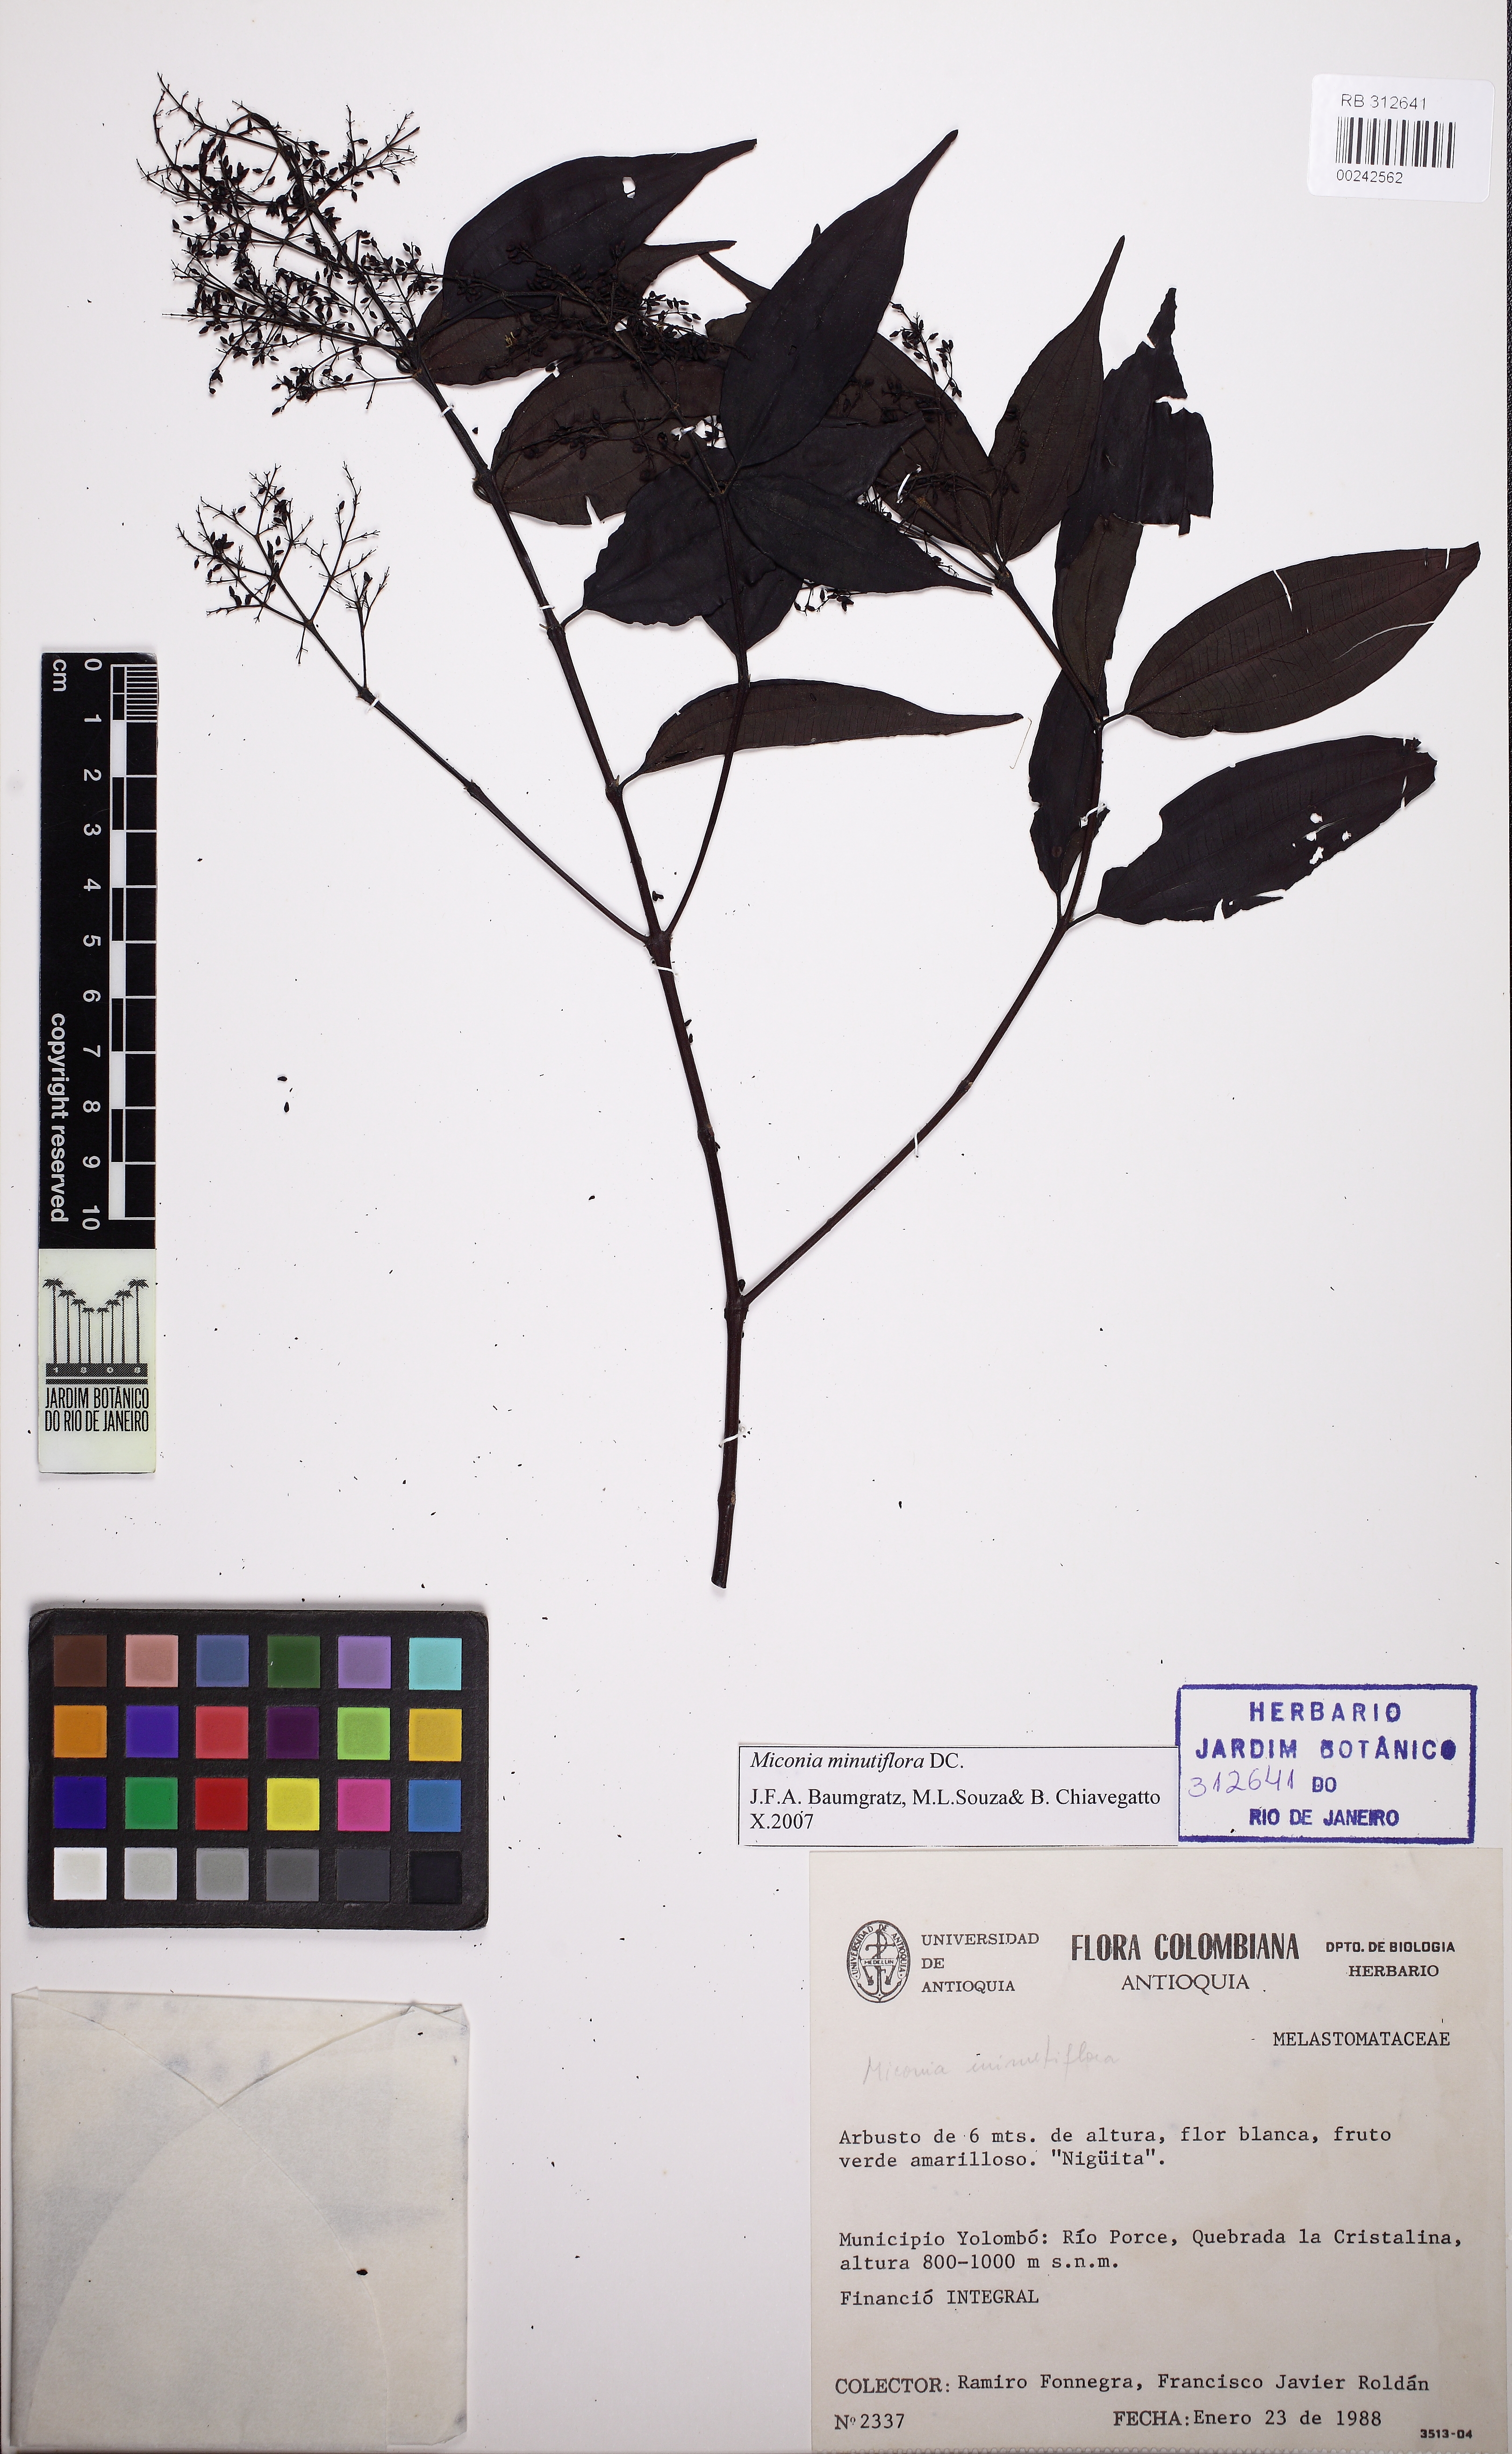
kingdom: Plantae
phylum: Tracheophyta
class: Magnoliopsida
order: Myrtales
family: Melastomataceae
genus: Miconia
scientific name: Miconia minutiflora
